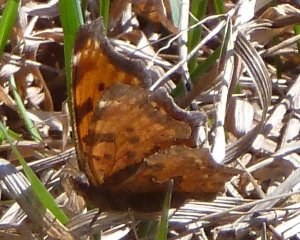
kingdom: Animalia
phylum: Arthropoda
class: Insecta
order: Lepidoptera
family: Nymphalidae
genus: Polygonia
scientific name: Polygonia comma
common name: Eastern Comma
